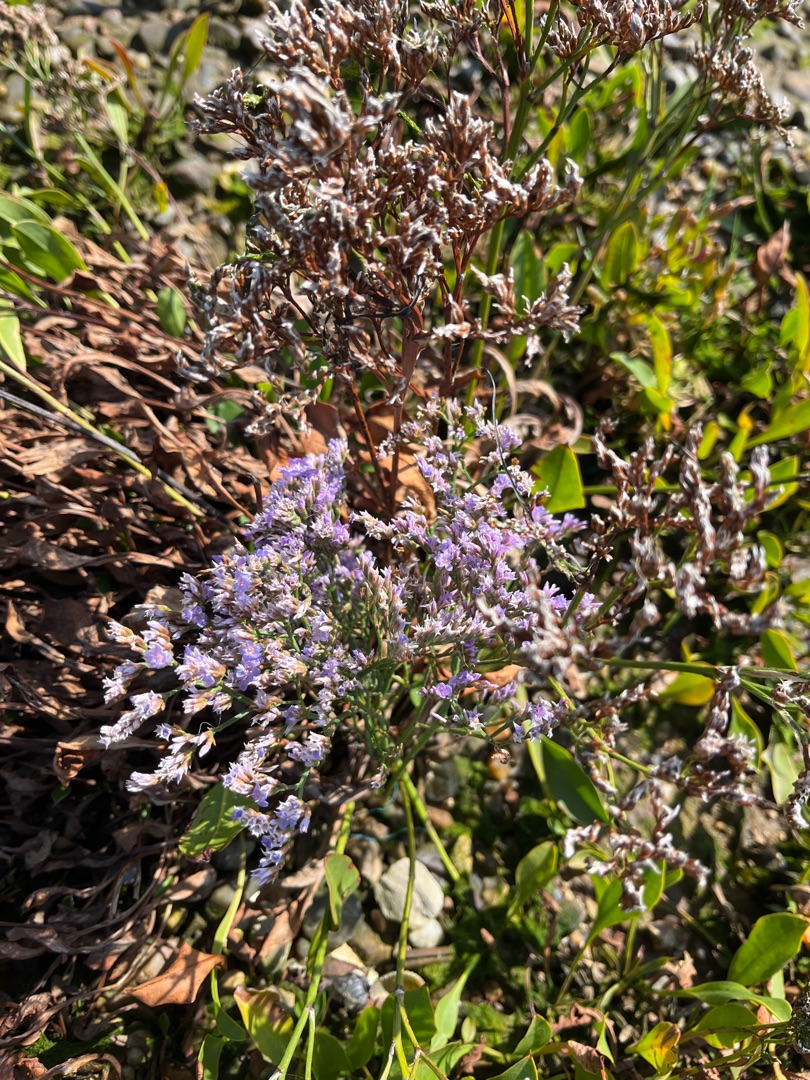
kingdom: Plantae
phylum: Tracheophyta
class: Magnoliopsida
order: Caryophyllales
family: Plumbaginaceae
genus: Limonium
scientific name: Limonium vulgare
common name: Tætblomstret hindebæger
